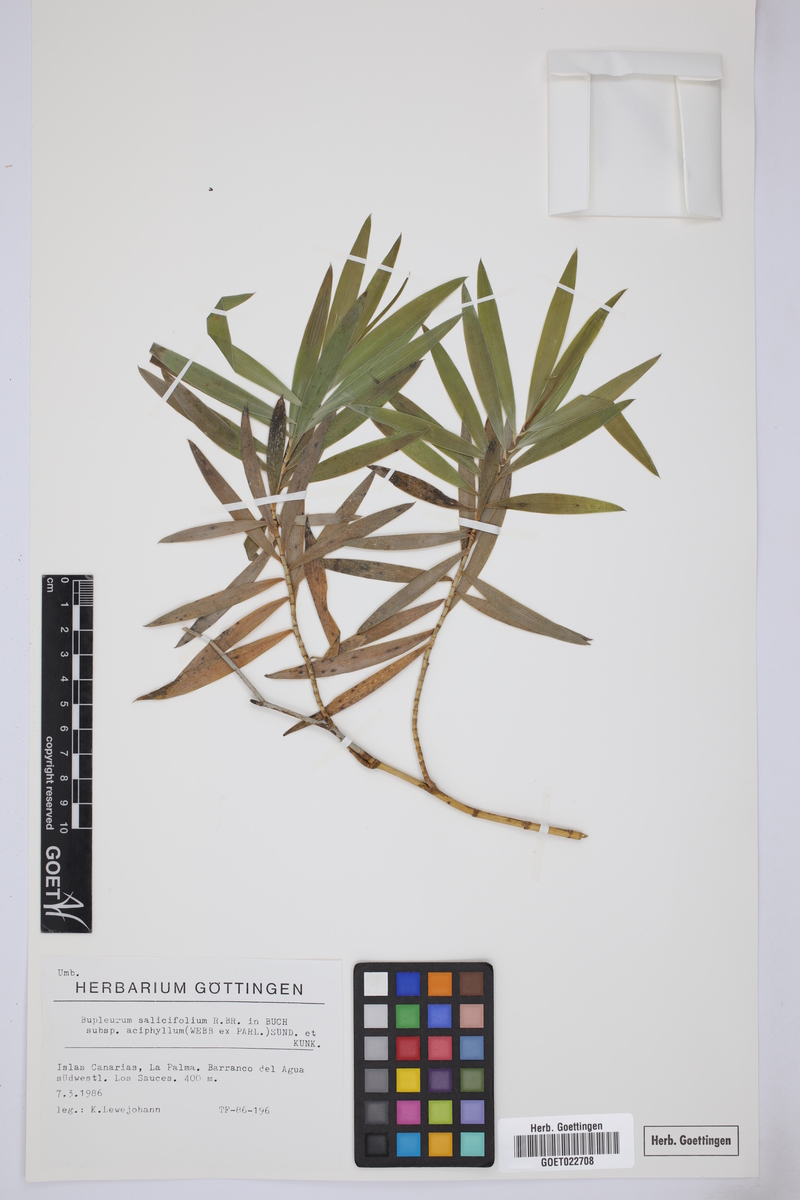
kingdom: Plantae
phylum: Tracheophyta
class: Magnoliopsida
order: Apiales
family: Apiaceae
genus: Bupleurum
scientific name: Bupleurum salicifolium
